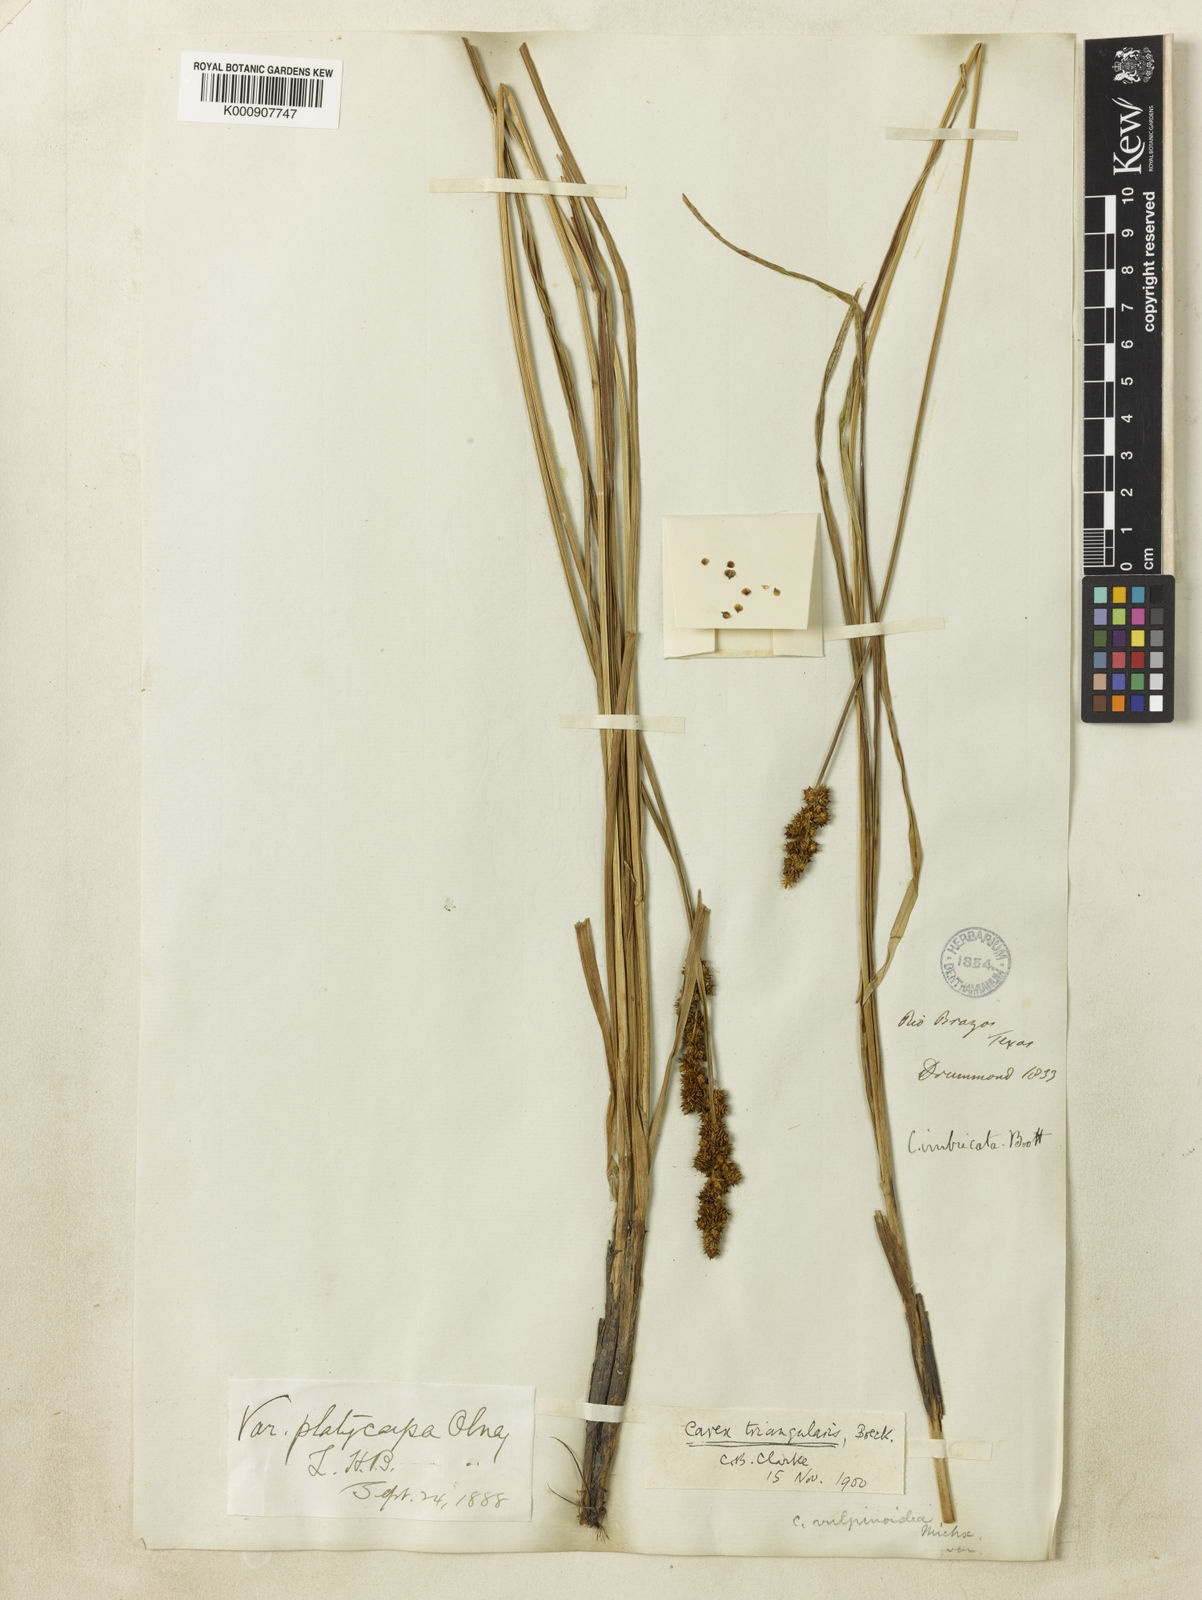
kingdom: Plantae
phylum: Tracheophyta
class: Liliopsida
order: Poales
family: Cyperaceae
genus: Carex
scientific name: Carex triangularis
